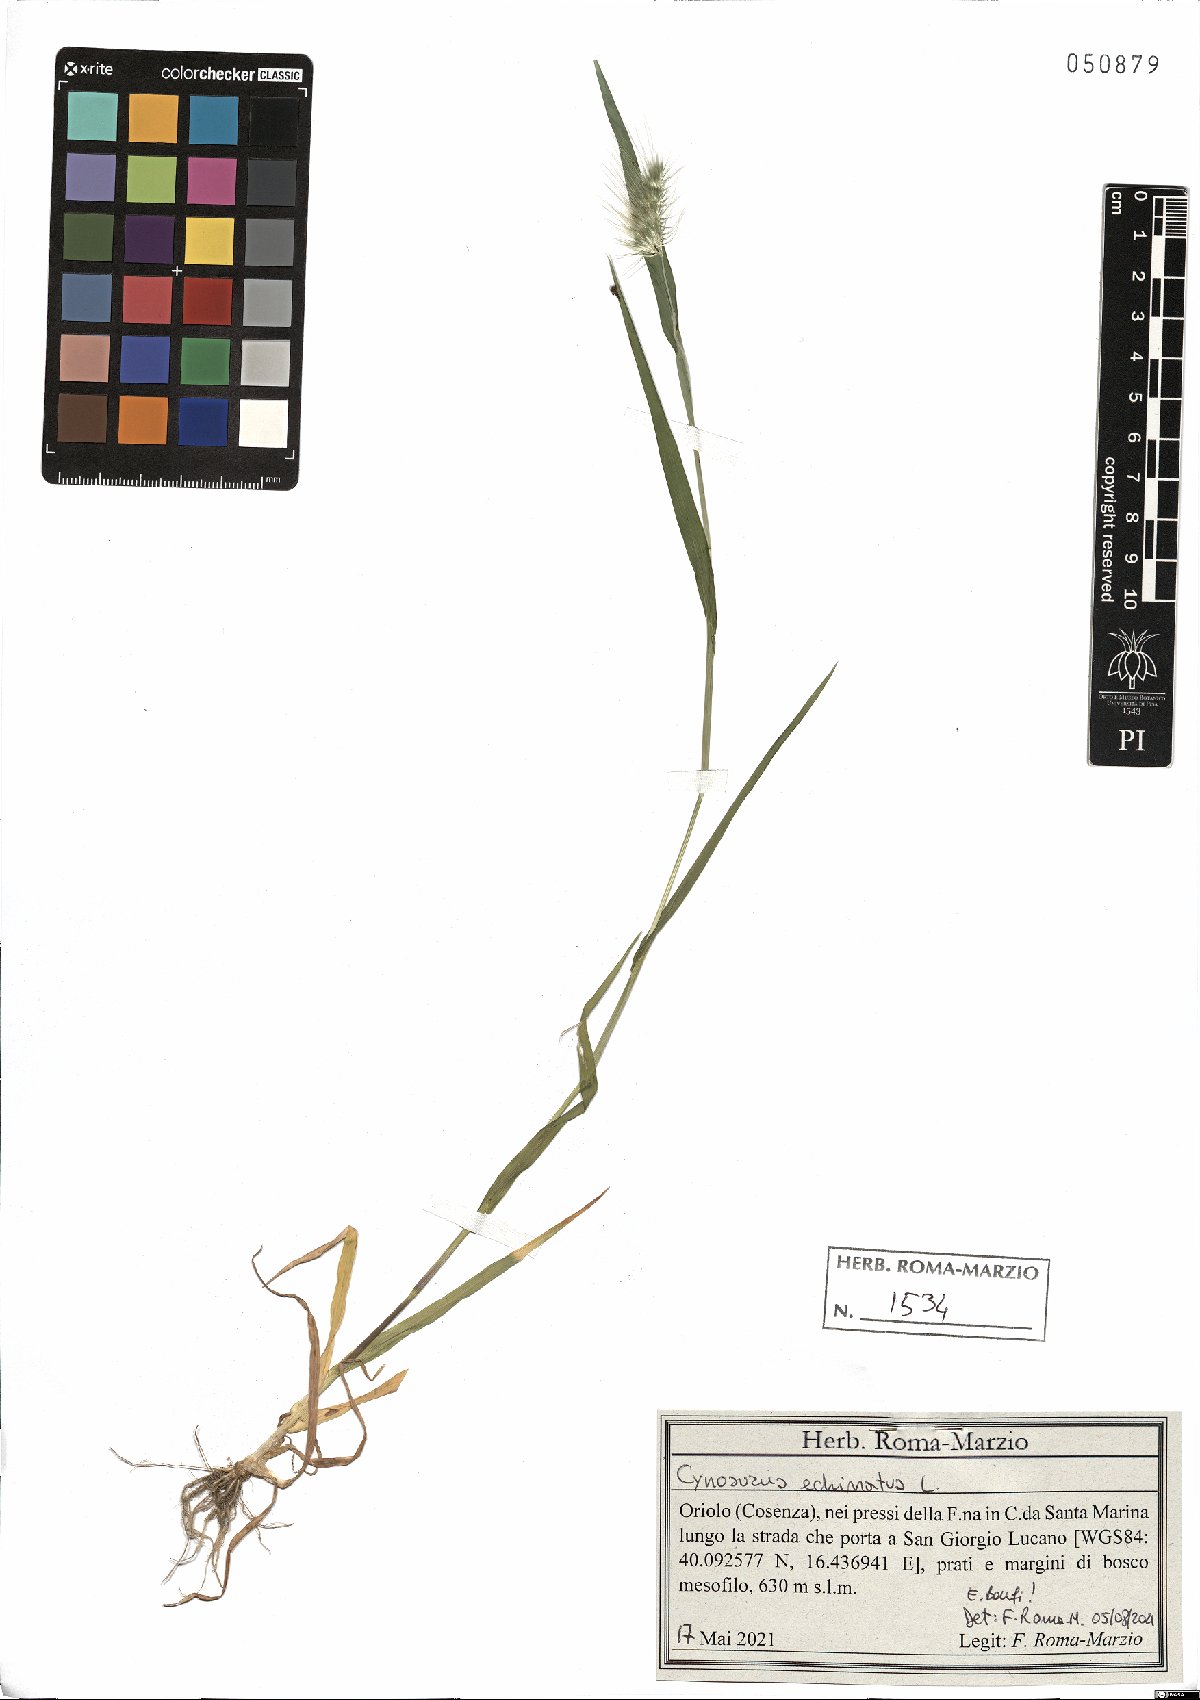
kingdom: Plantae
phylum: Tracheophyta
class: Liliopsida
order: Poales
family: Poaceae
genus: Cynosurus
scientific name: Cynosurus echinatus
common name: Rough dog's-tail
